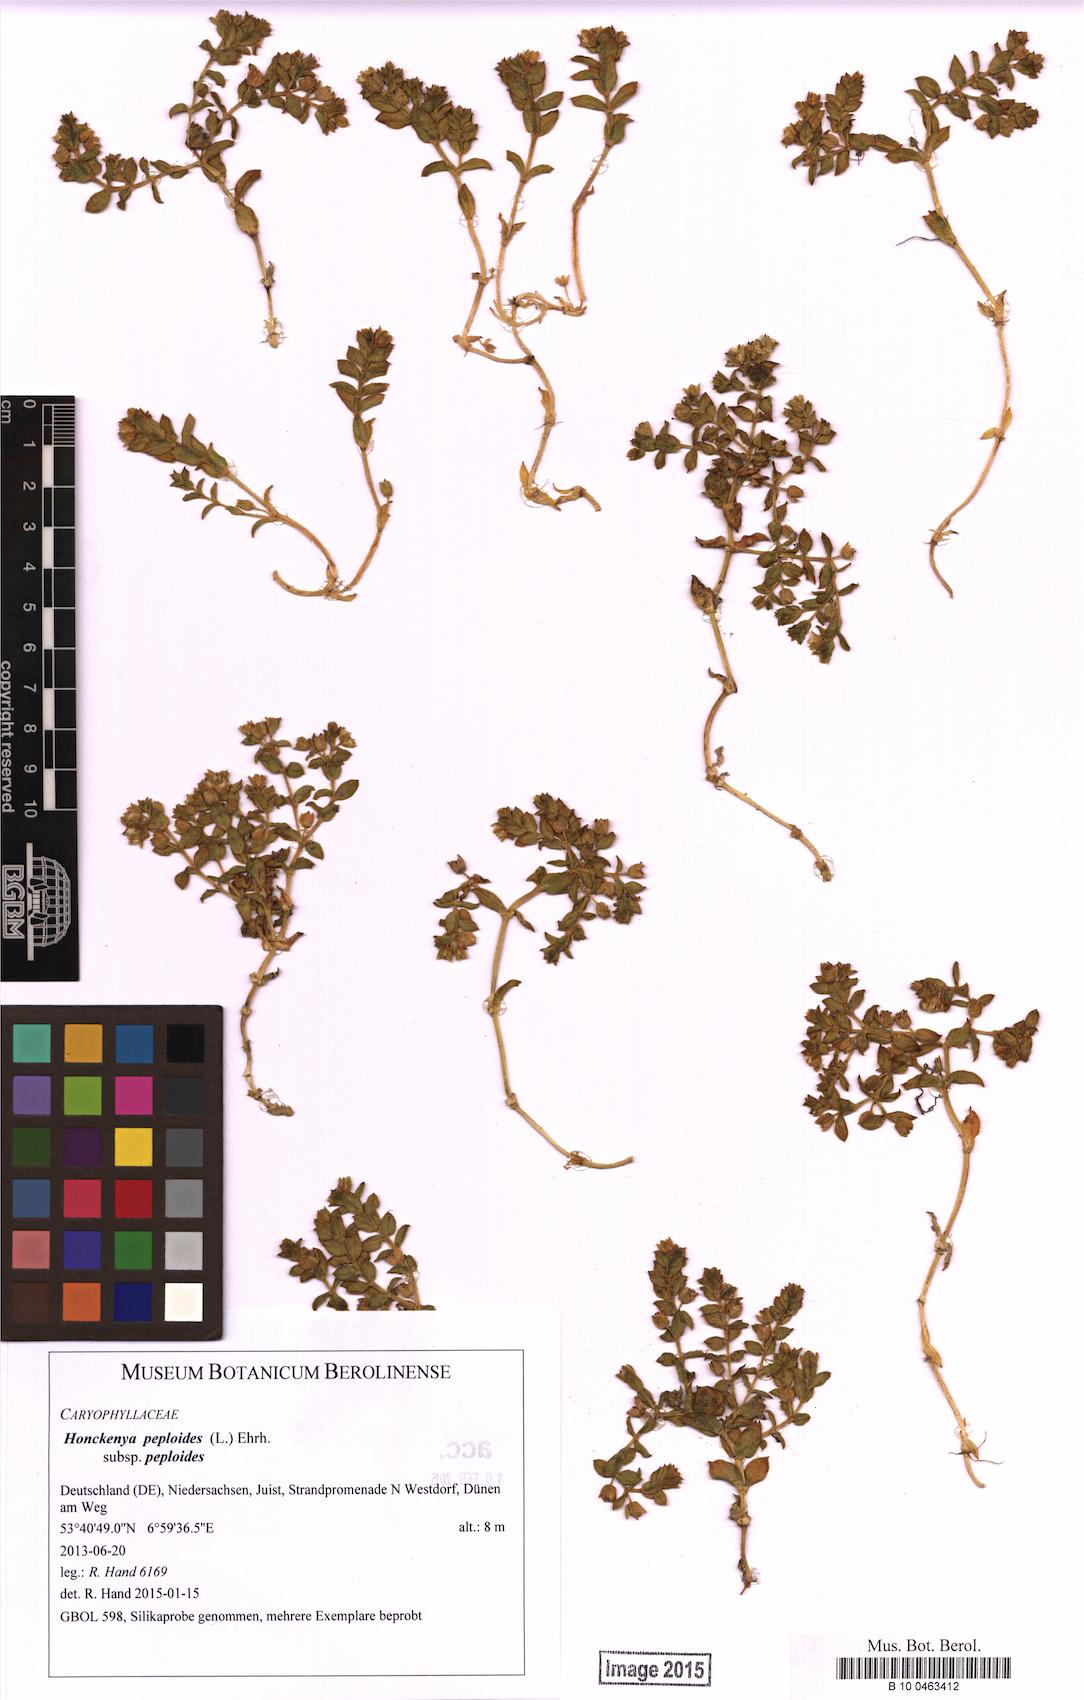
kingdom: Plantae
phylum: Tracheophyta
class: Magnoliopsida
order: Caryophyllales
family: Caryophyllaceae
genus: Honckenya
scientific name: Honckenya peploides
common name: Sea sandwort
